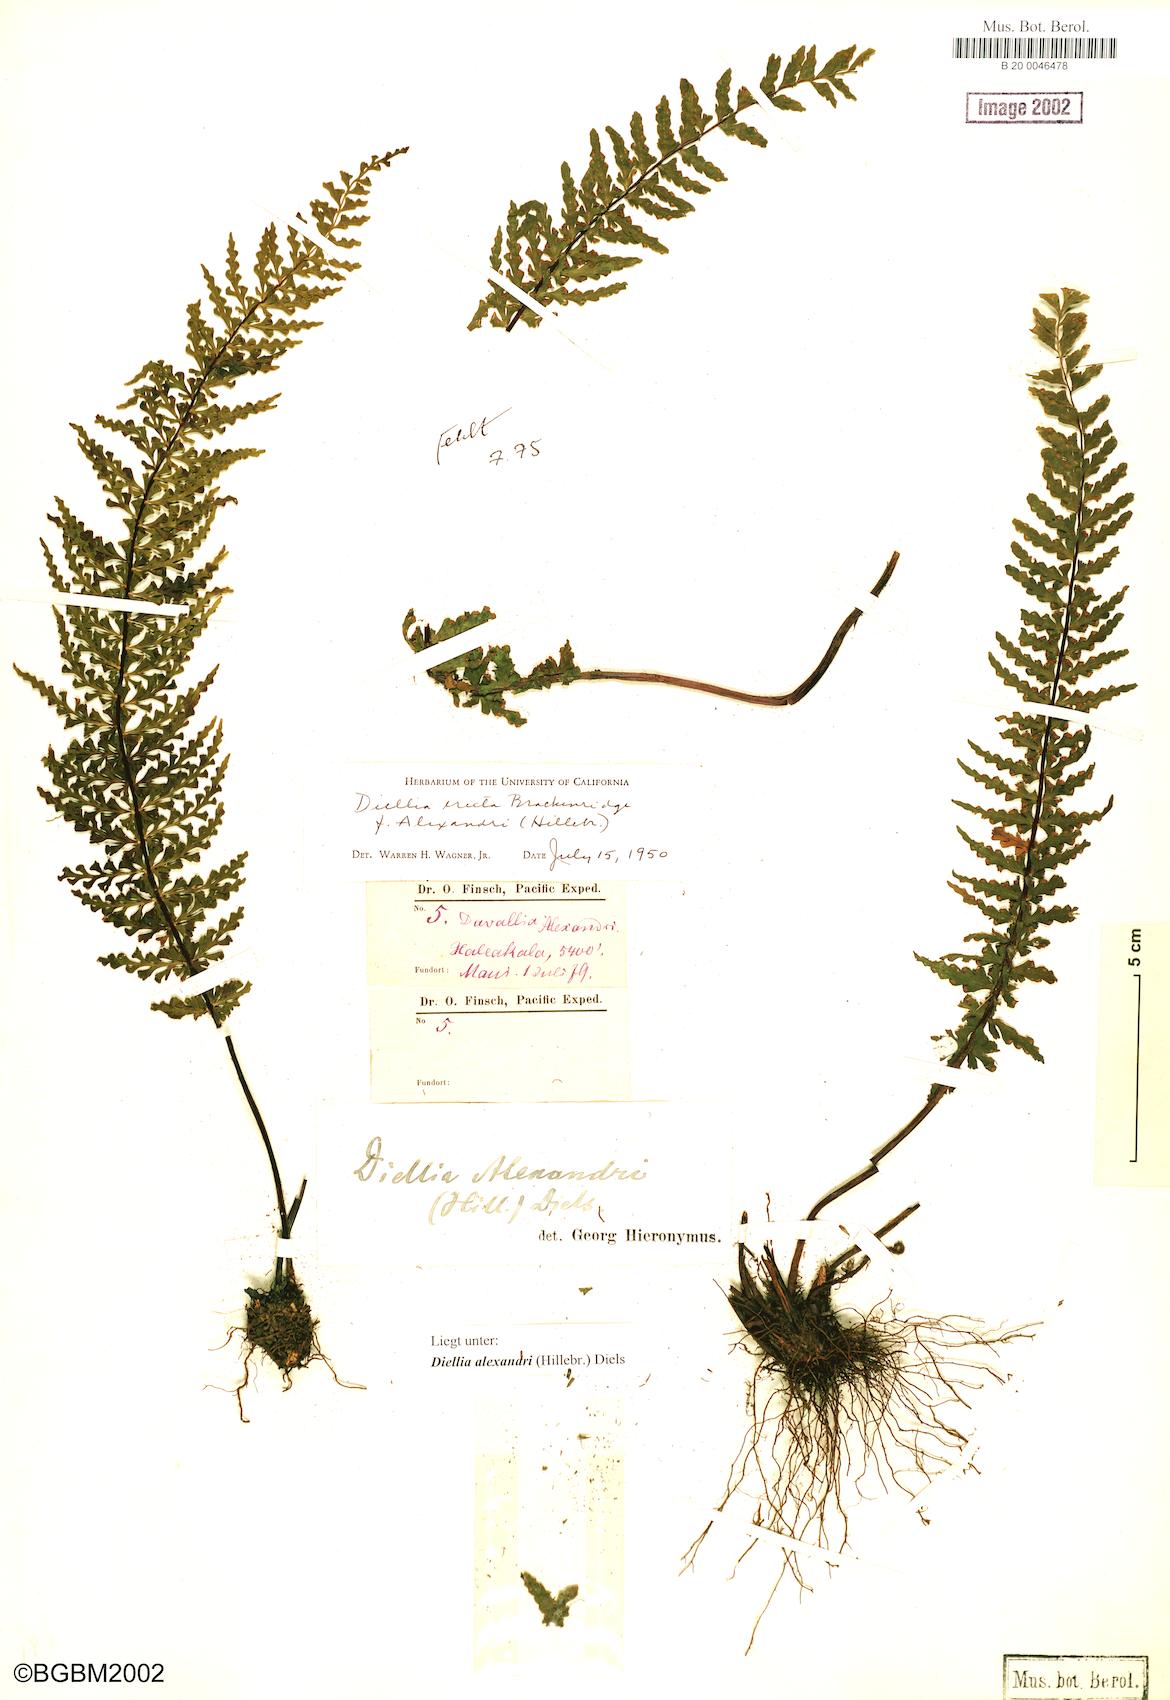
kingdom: Plantae
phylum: Tracheophyta
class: Polypodiopsida
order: Polypodiales
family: Aspleniaceae
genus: Asplenium
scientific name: Asplenium dielerectum
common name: Erect island spleenwort
